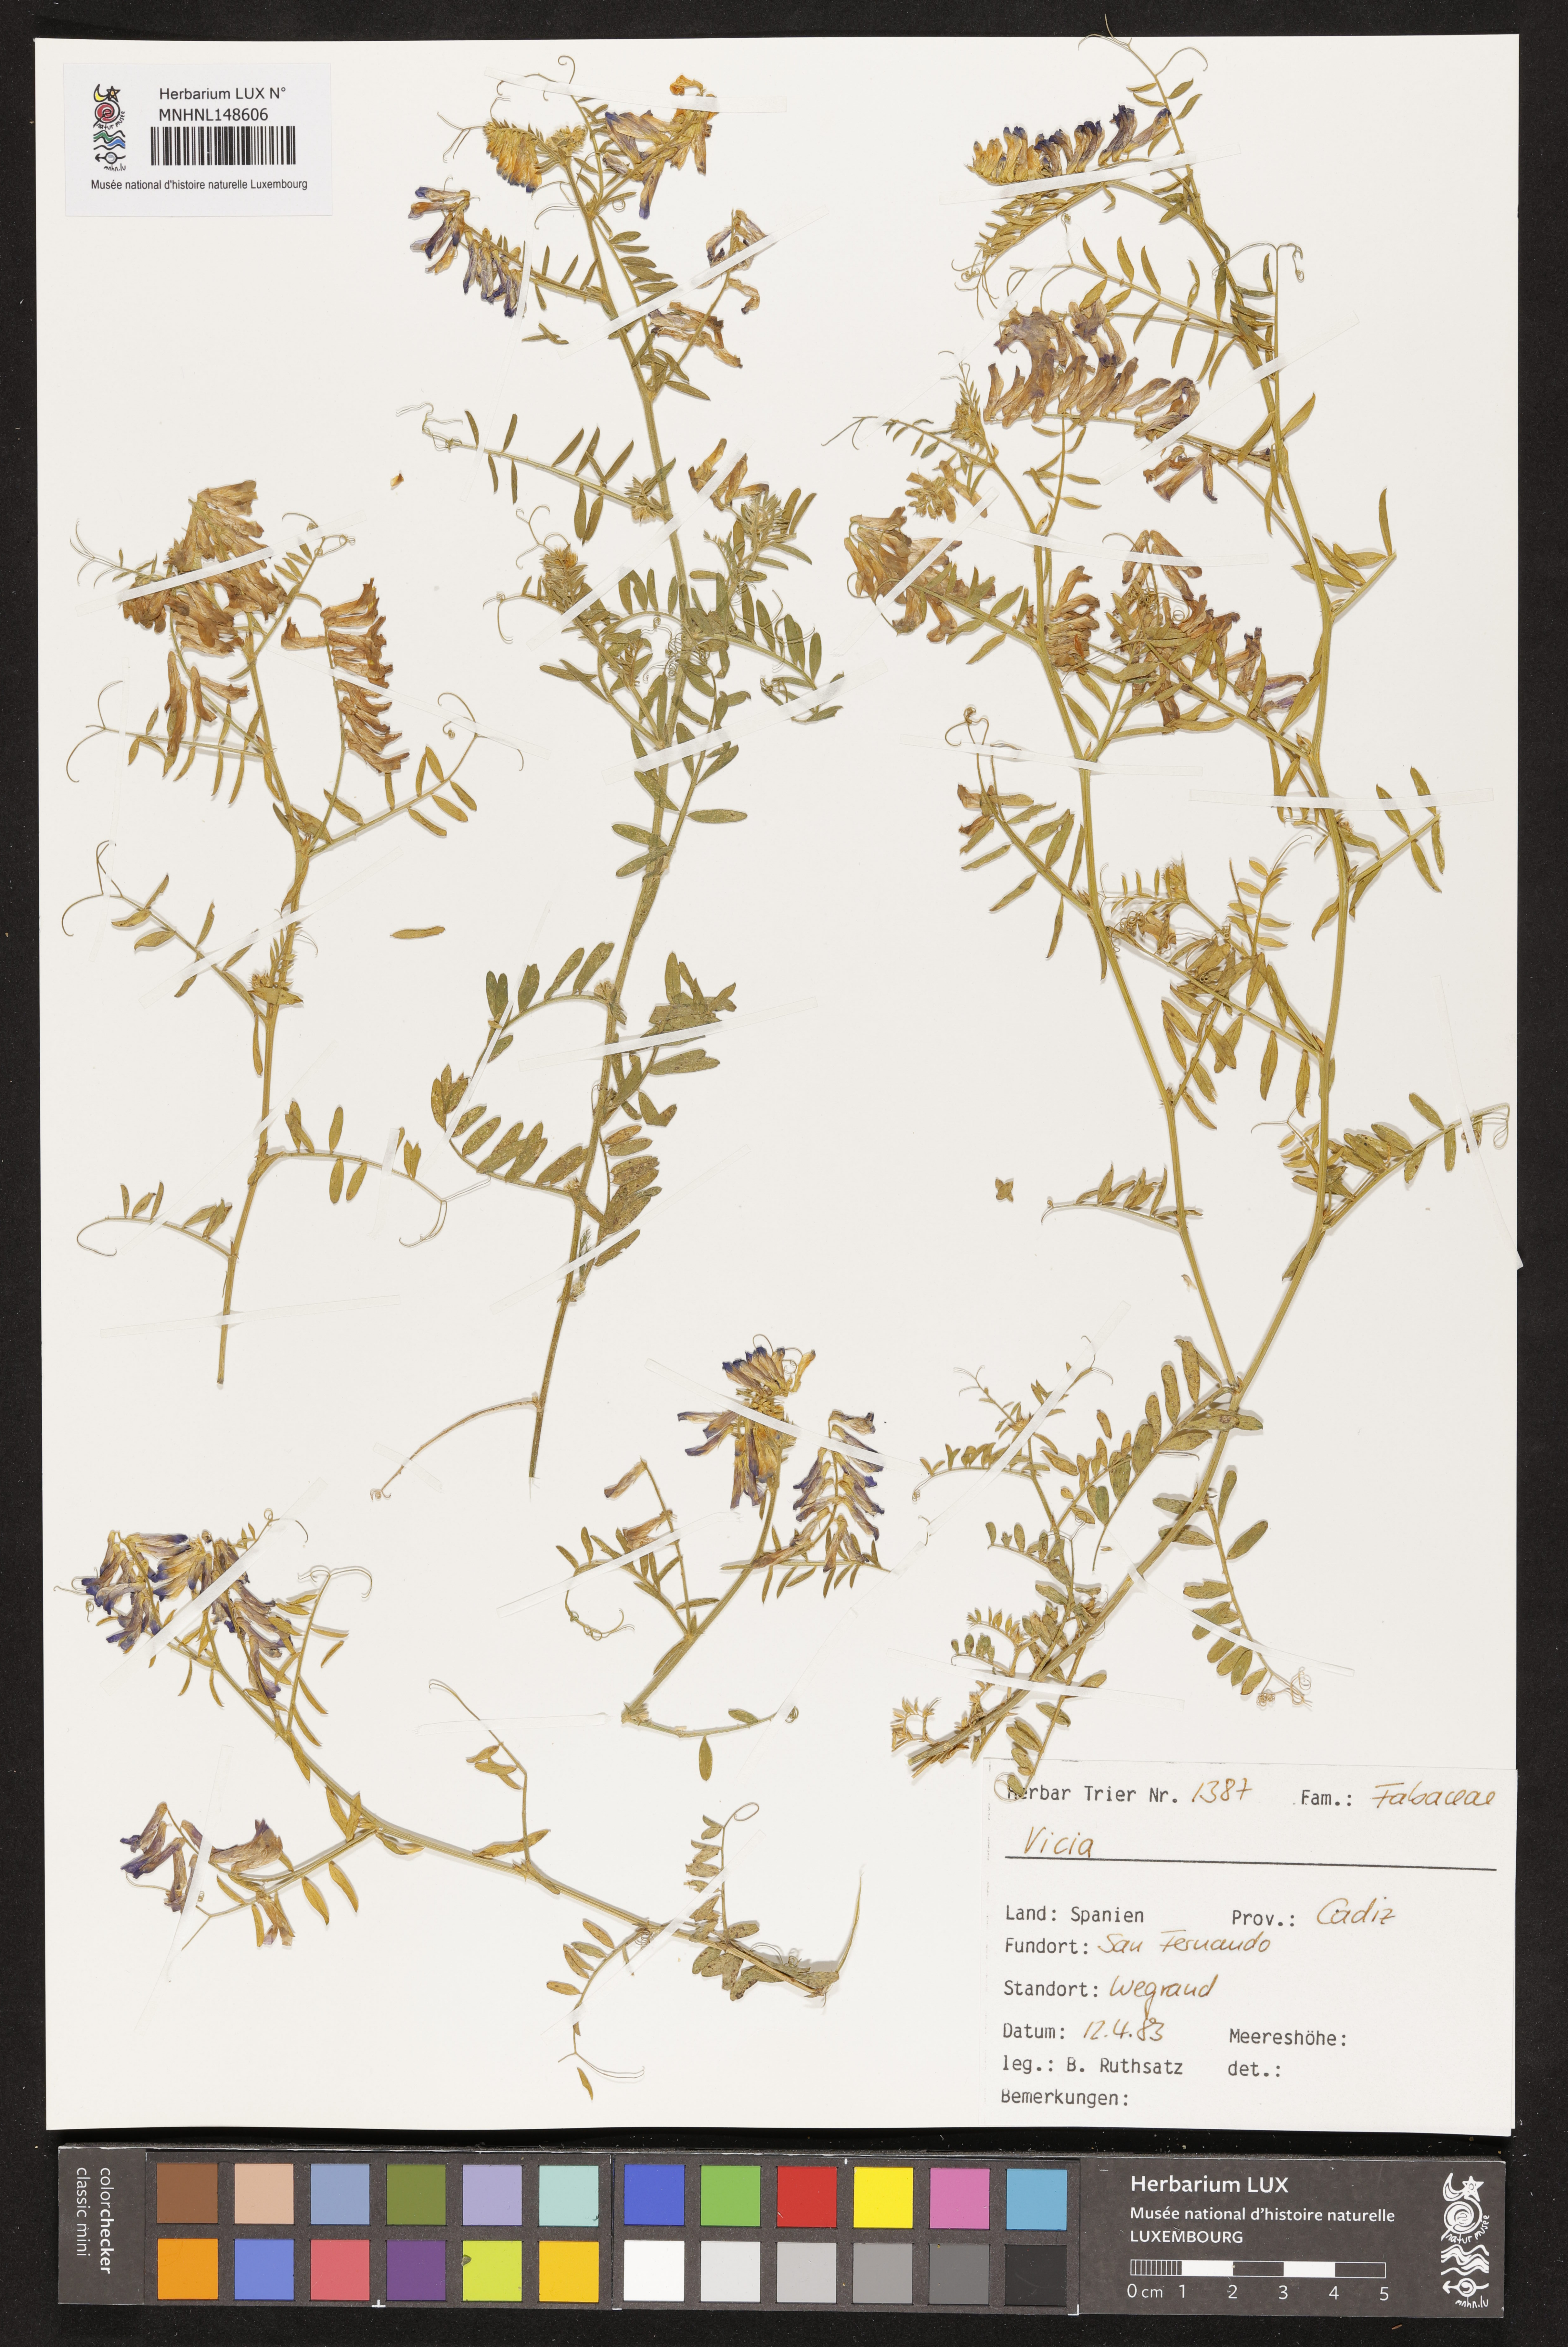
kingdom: Plantae
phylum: Tracheophyta
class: Magnoliopsida
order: Fabales
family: Fabaceae
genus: Vicia
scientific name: Vicia
